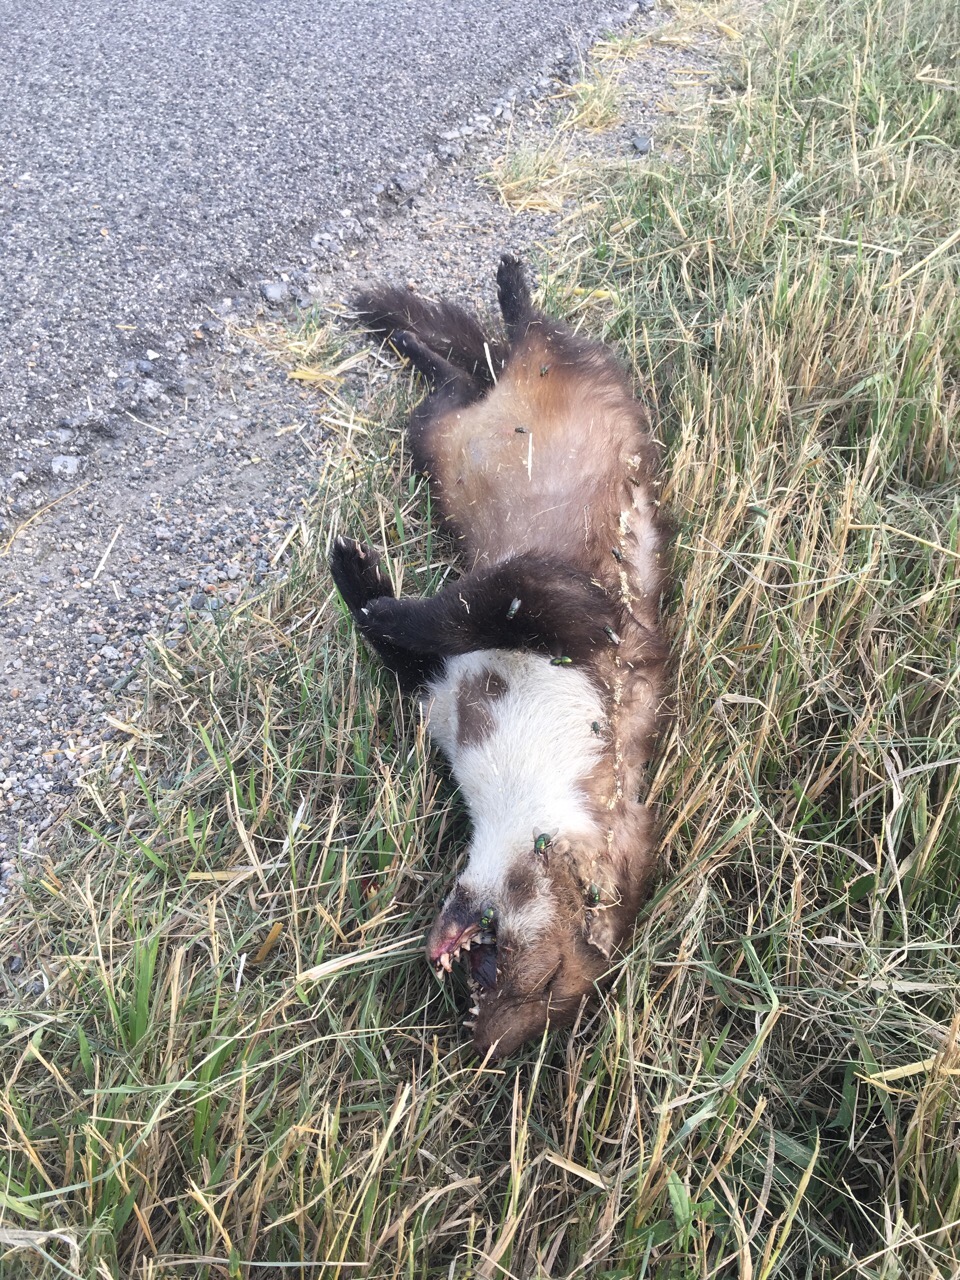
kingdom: Animalia
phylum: Chordata
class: Mammalia
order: Carnivora
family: Mustelidae
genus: Martes
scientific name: Martes foina
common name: Beech marten
